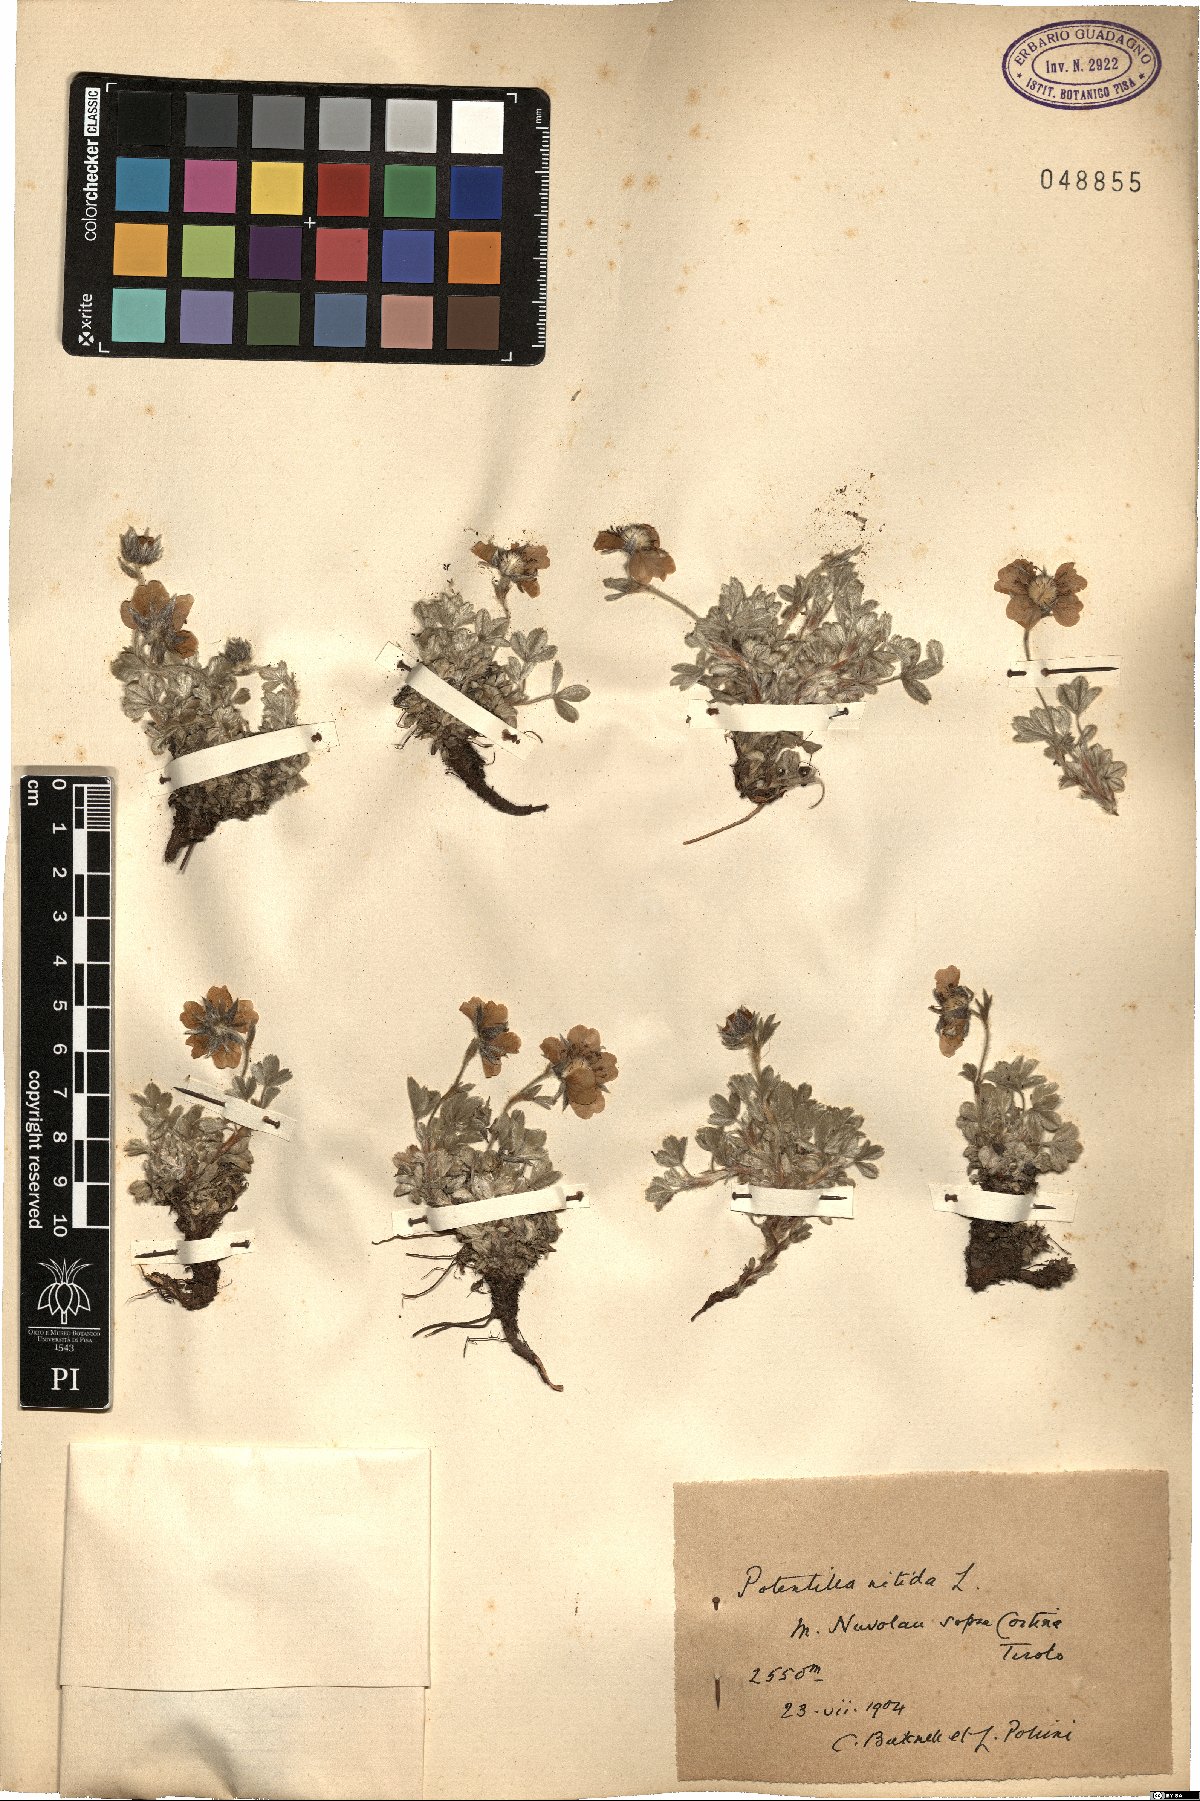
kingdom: Plantae
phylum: Tracheophyta
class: Magnoliopsida
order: Rosales
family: Rosaceae
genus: Potentilla
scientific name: Potentilla nitida
